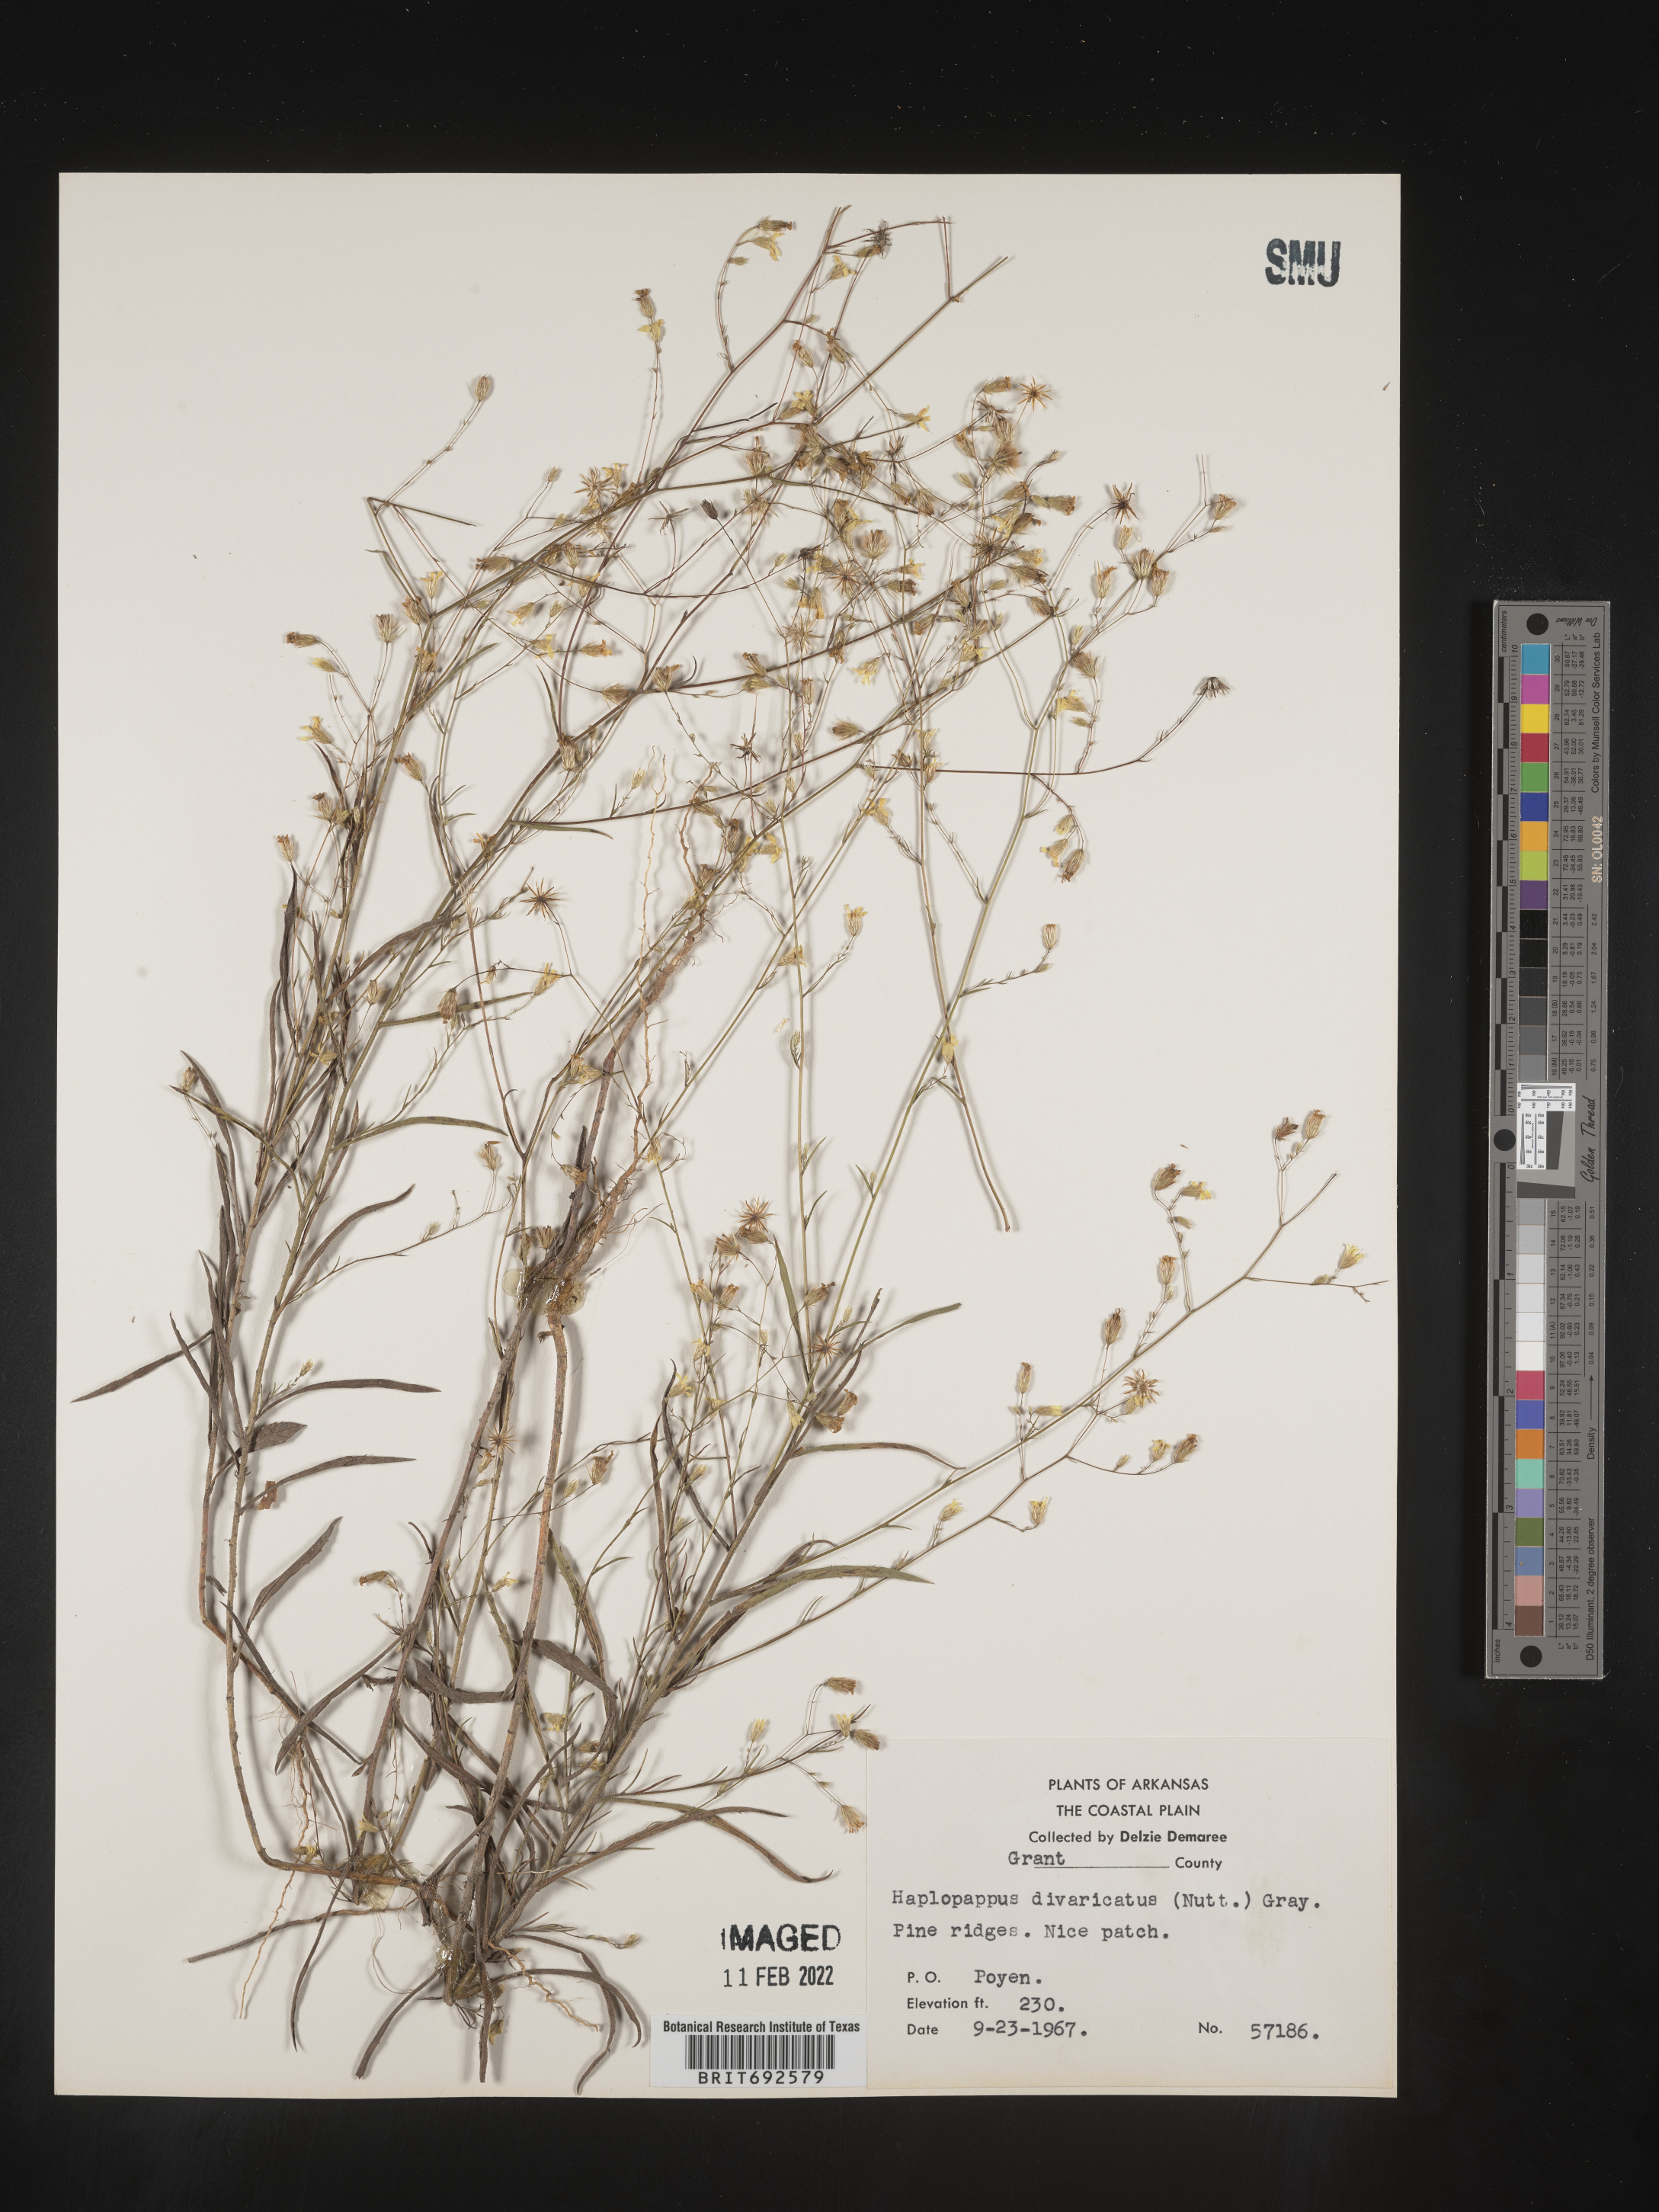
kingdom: Plantae
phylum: Tracheophyta
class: Magnoliopsida
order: Asterales
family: Asteraceae
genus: Croptilon
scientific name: Croptilon divaricatum
